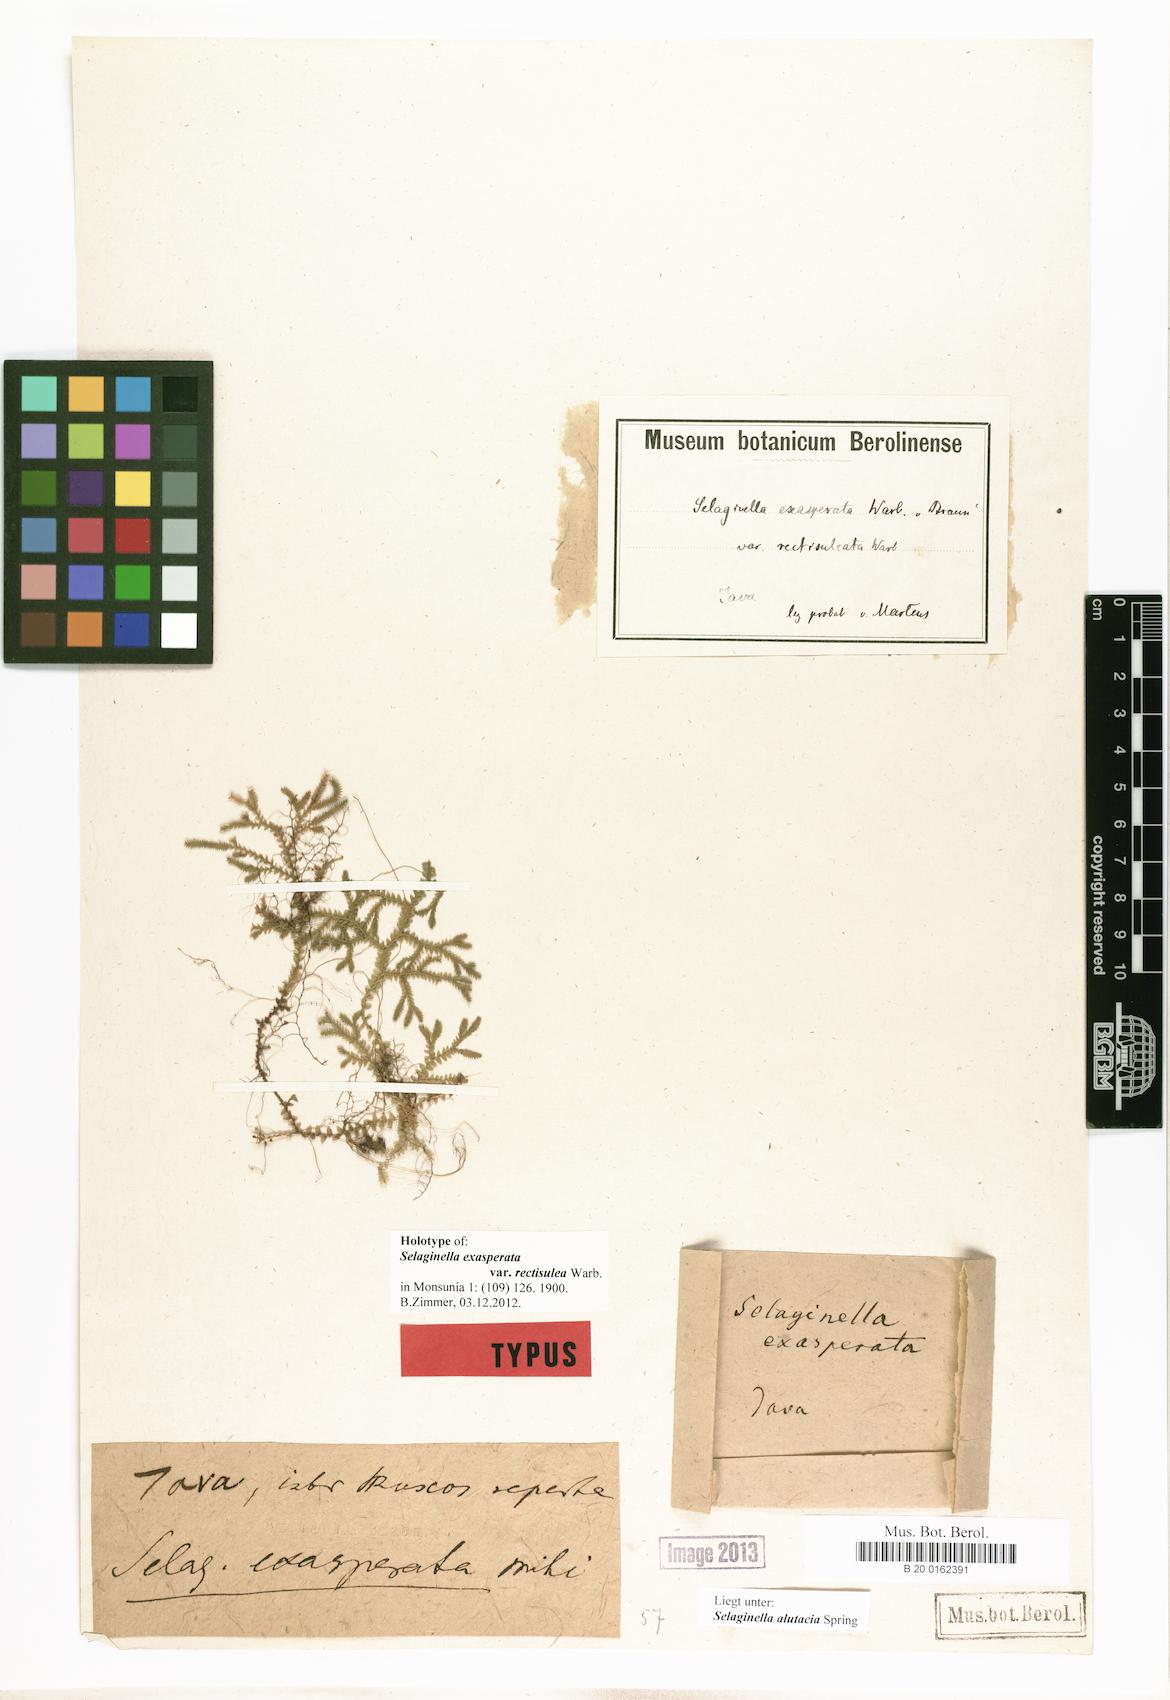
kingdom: Plantae
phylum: Tracheophyta
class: Lycopodiopsida
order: Selaginellales
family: Selaginellaceae
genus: Selaginella
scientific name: Selaginella alutacea
